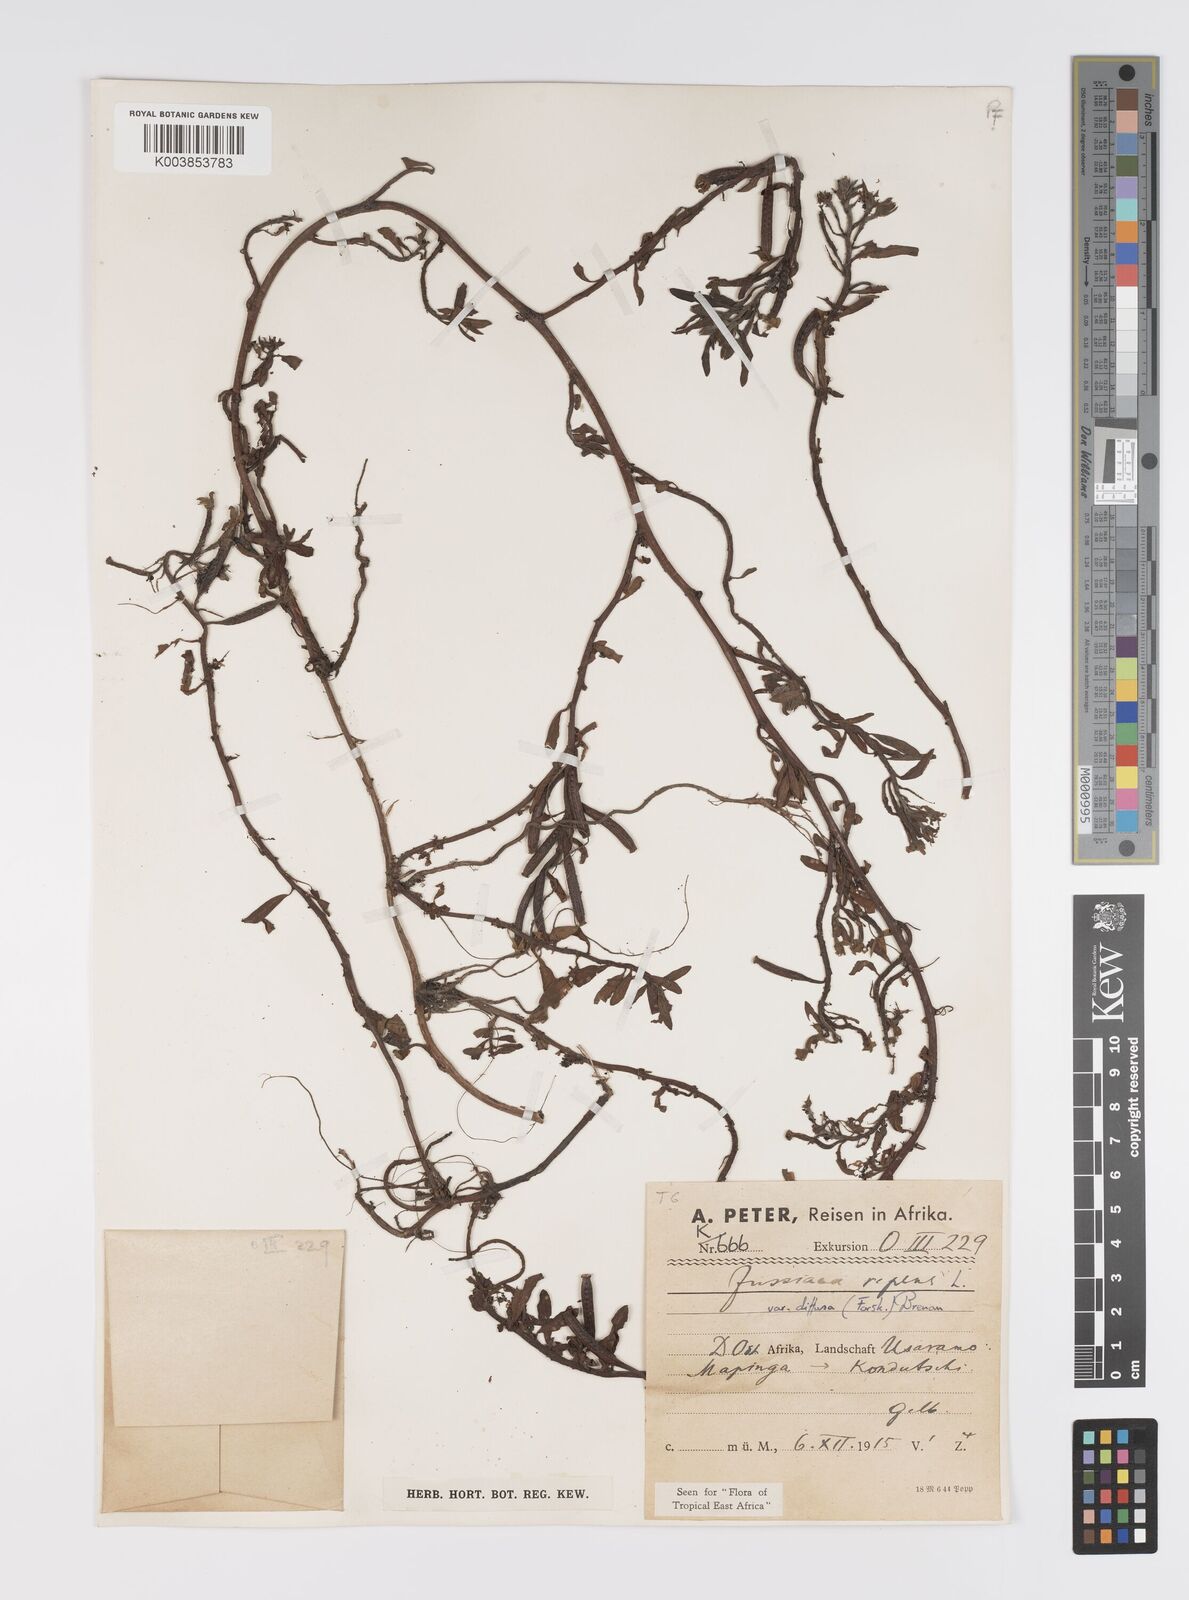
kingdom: Plantae
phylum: Tracheophyta
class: Magnoliopsida
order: Myrtales
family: Onagraceae
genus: Ludwigia
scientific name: Ludwigia repens
